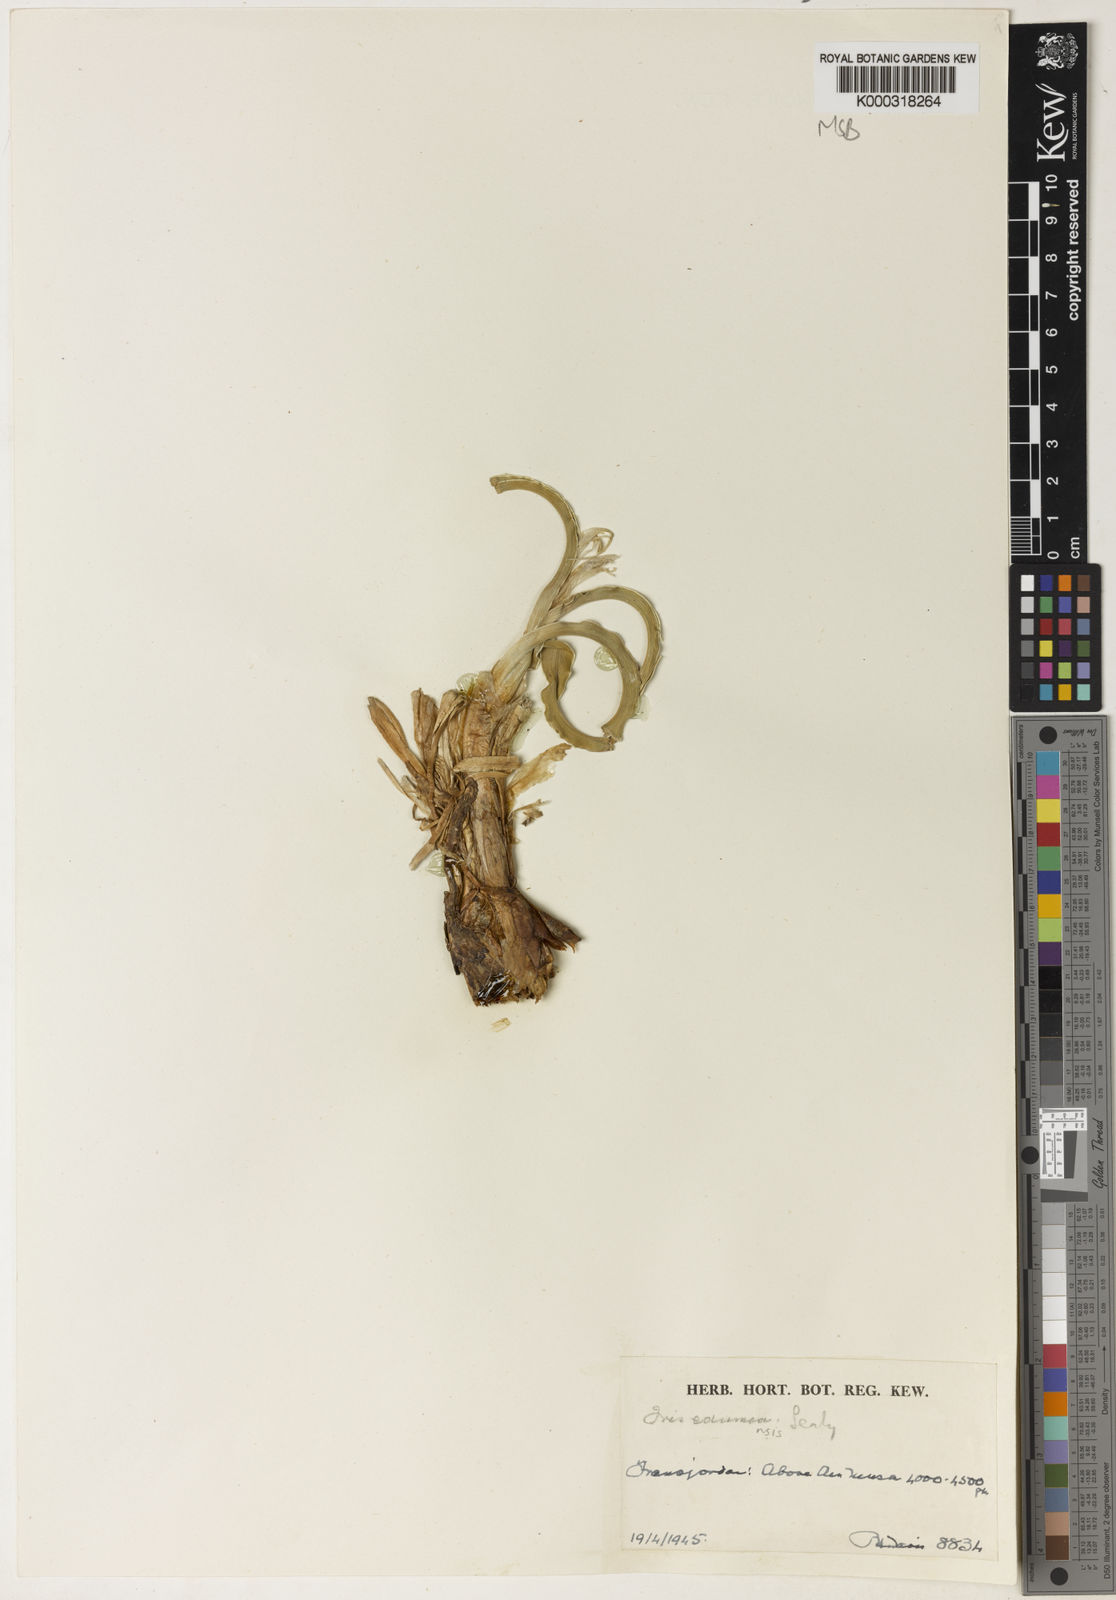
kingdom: Plantae
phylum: Tracheophyta
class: Liliopsida
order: Asparagales
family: Iridaceae
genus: Iris
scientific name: Iris edomensis
